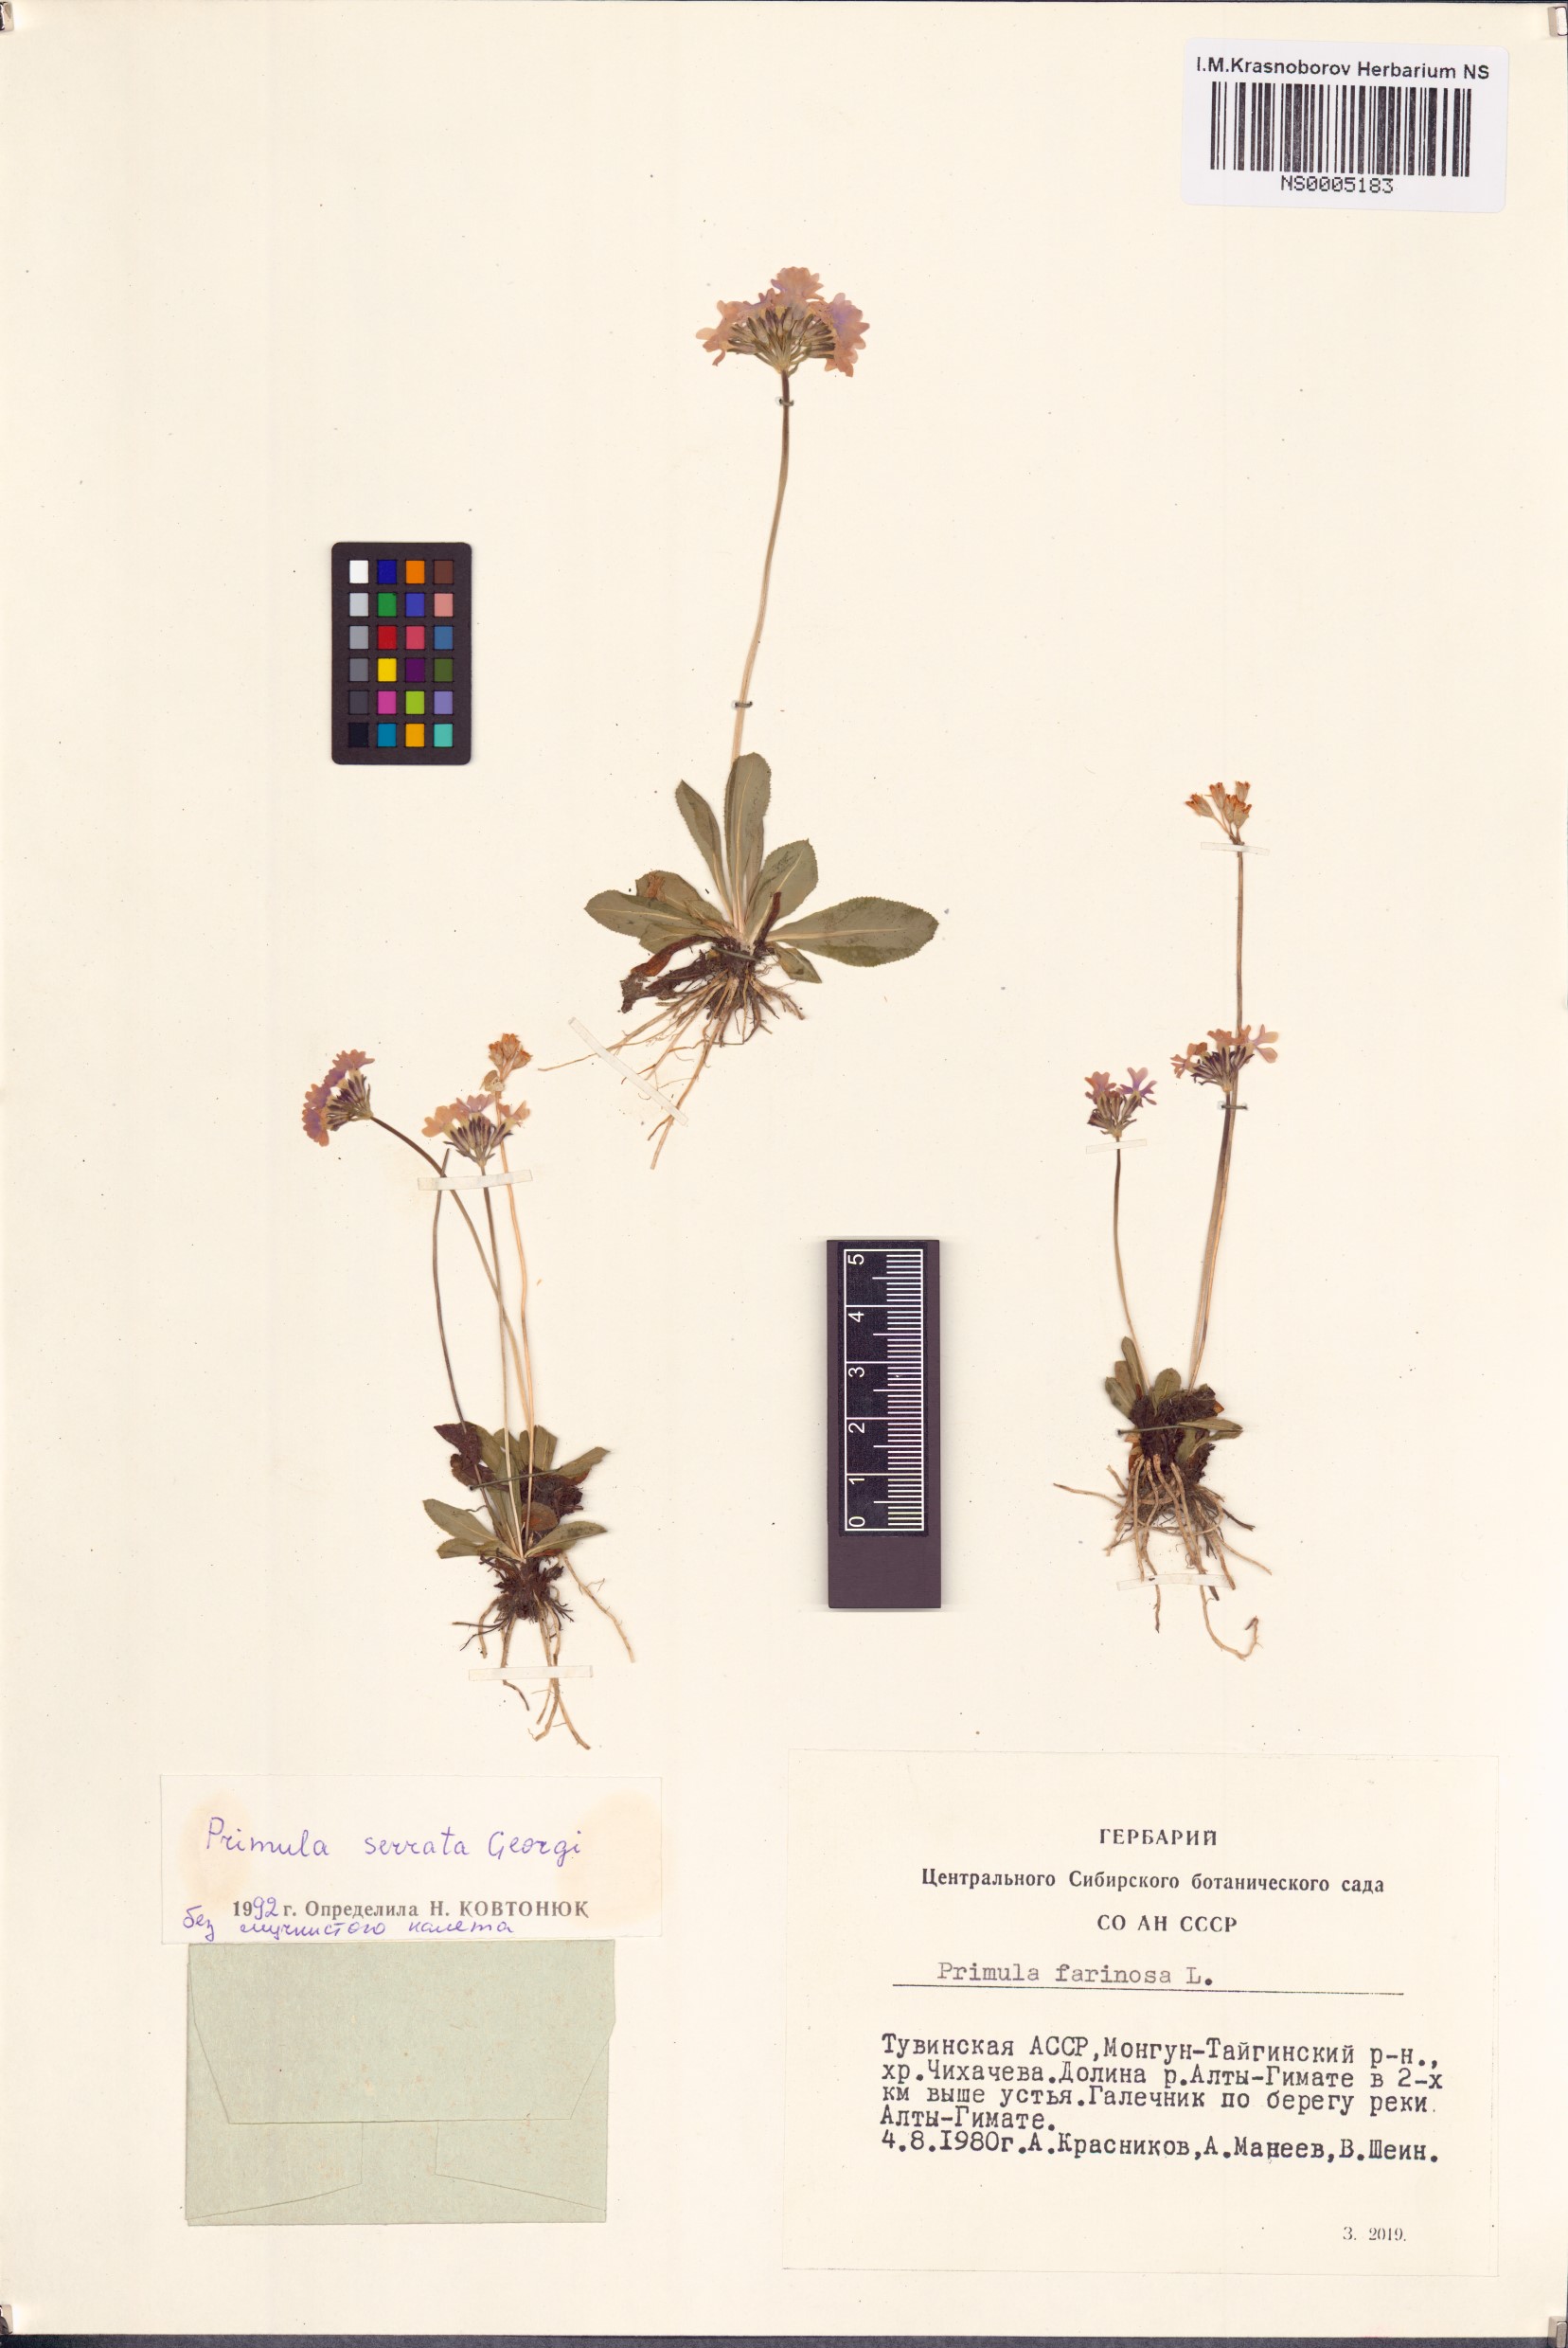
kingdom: Plantae
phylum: Tracheophyta
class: Magnoliopsida
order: Ericales
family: Primulaceae
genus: Primula
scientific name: Primula serrata
